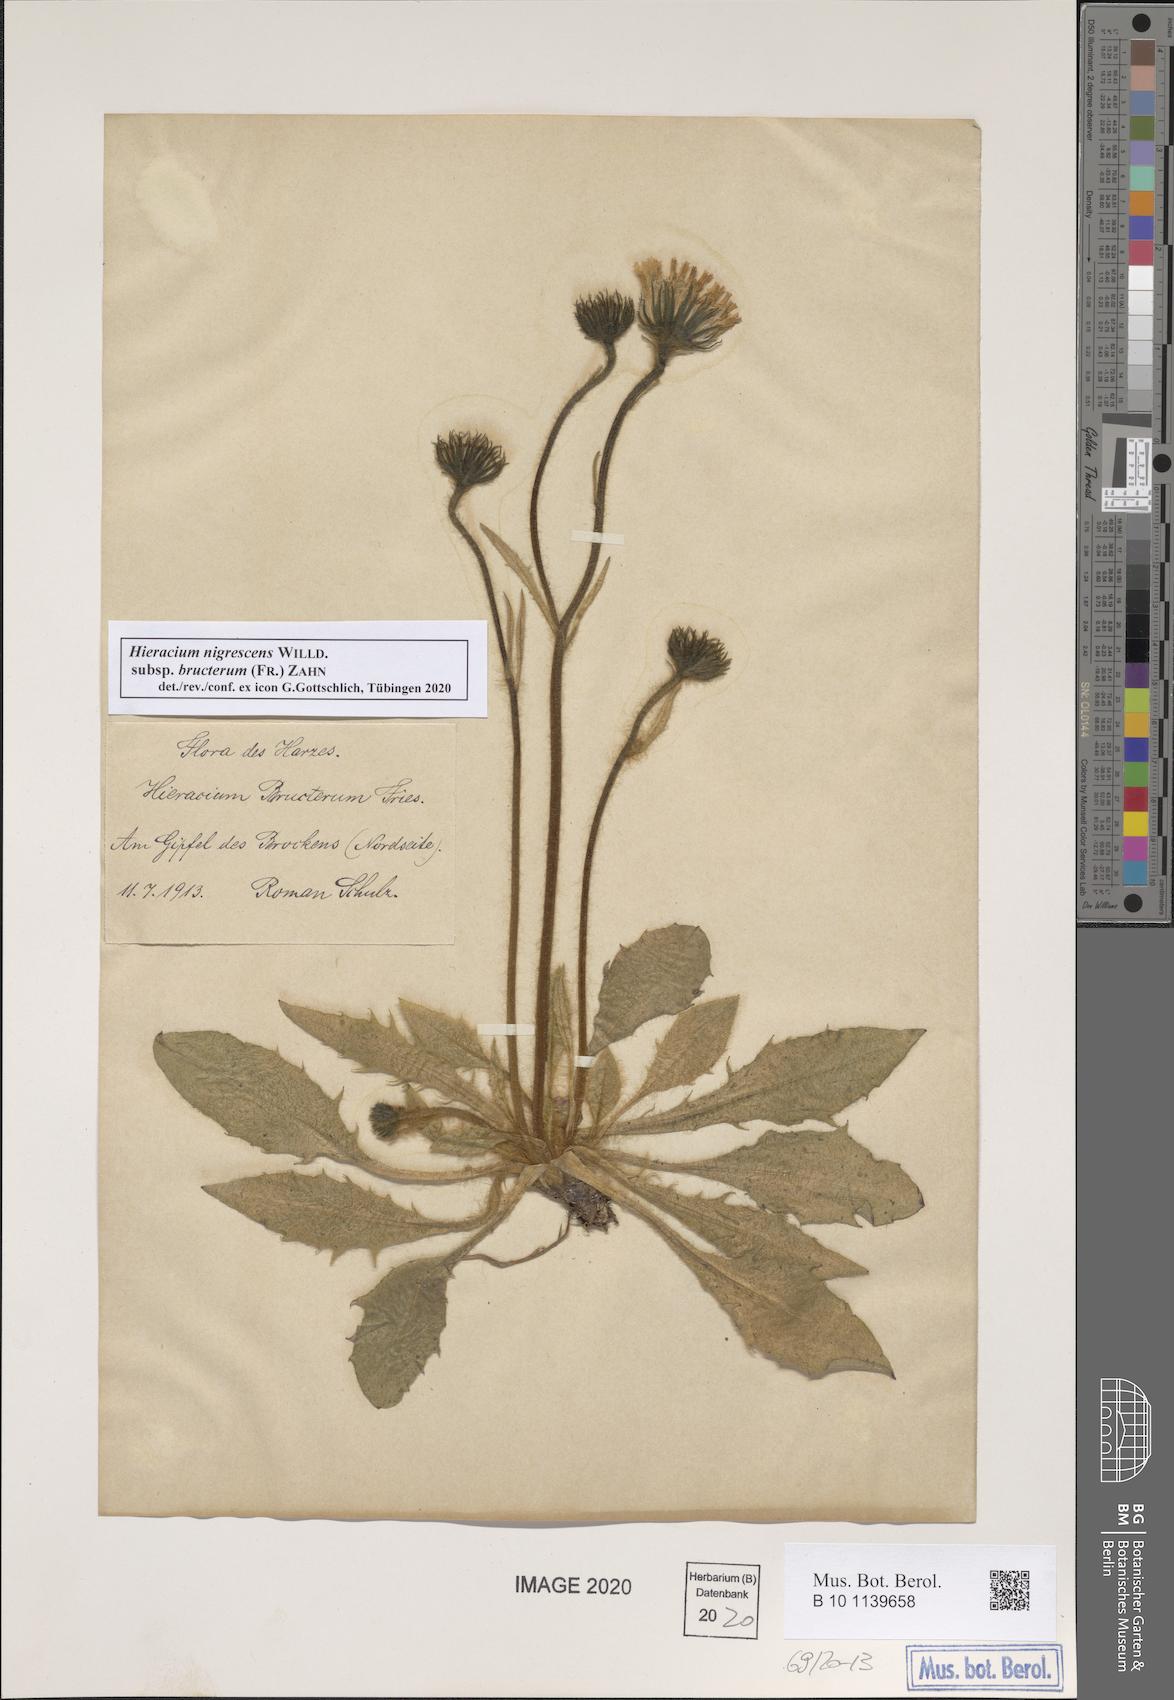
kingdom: Plantae
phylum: Tracheophyta
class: Magnoliopsida
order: Asterales
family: Asteraceae
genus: Hieracium
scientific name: Hieracium nigrescens
